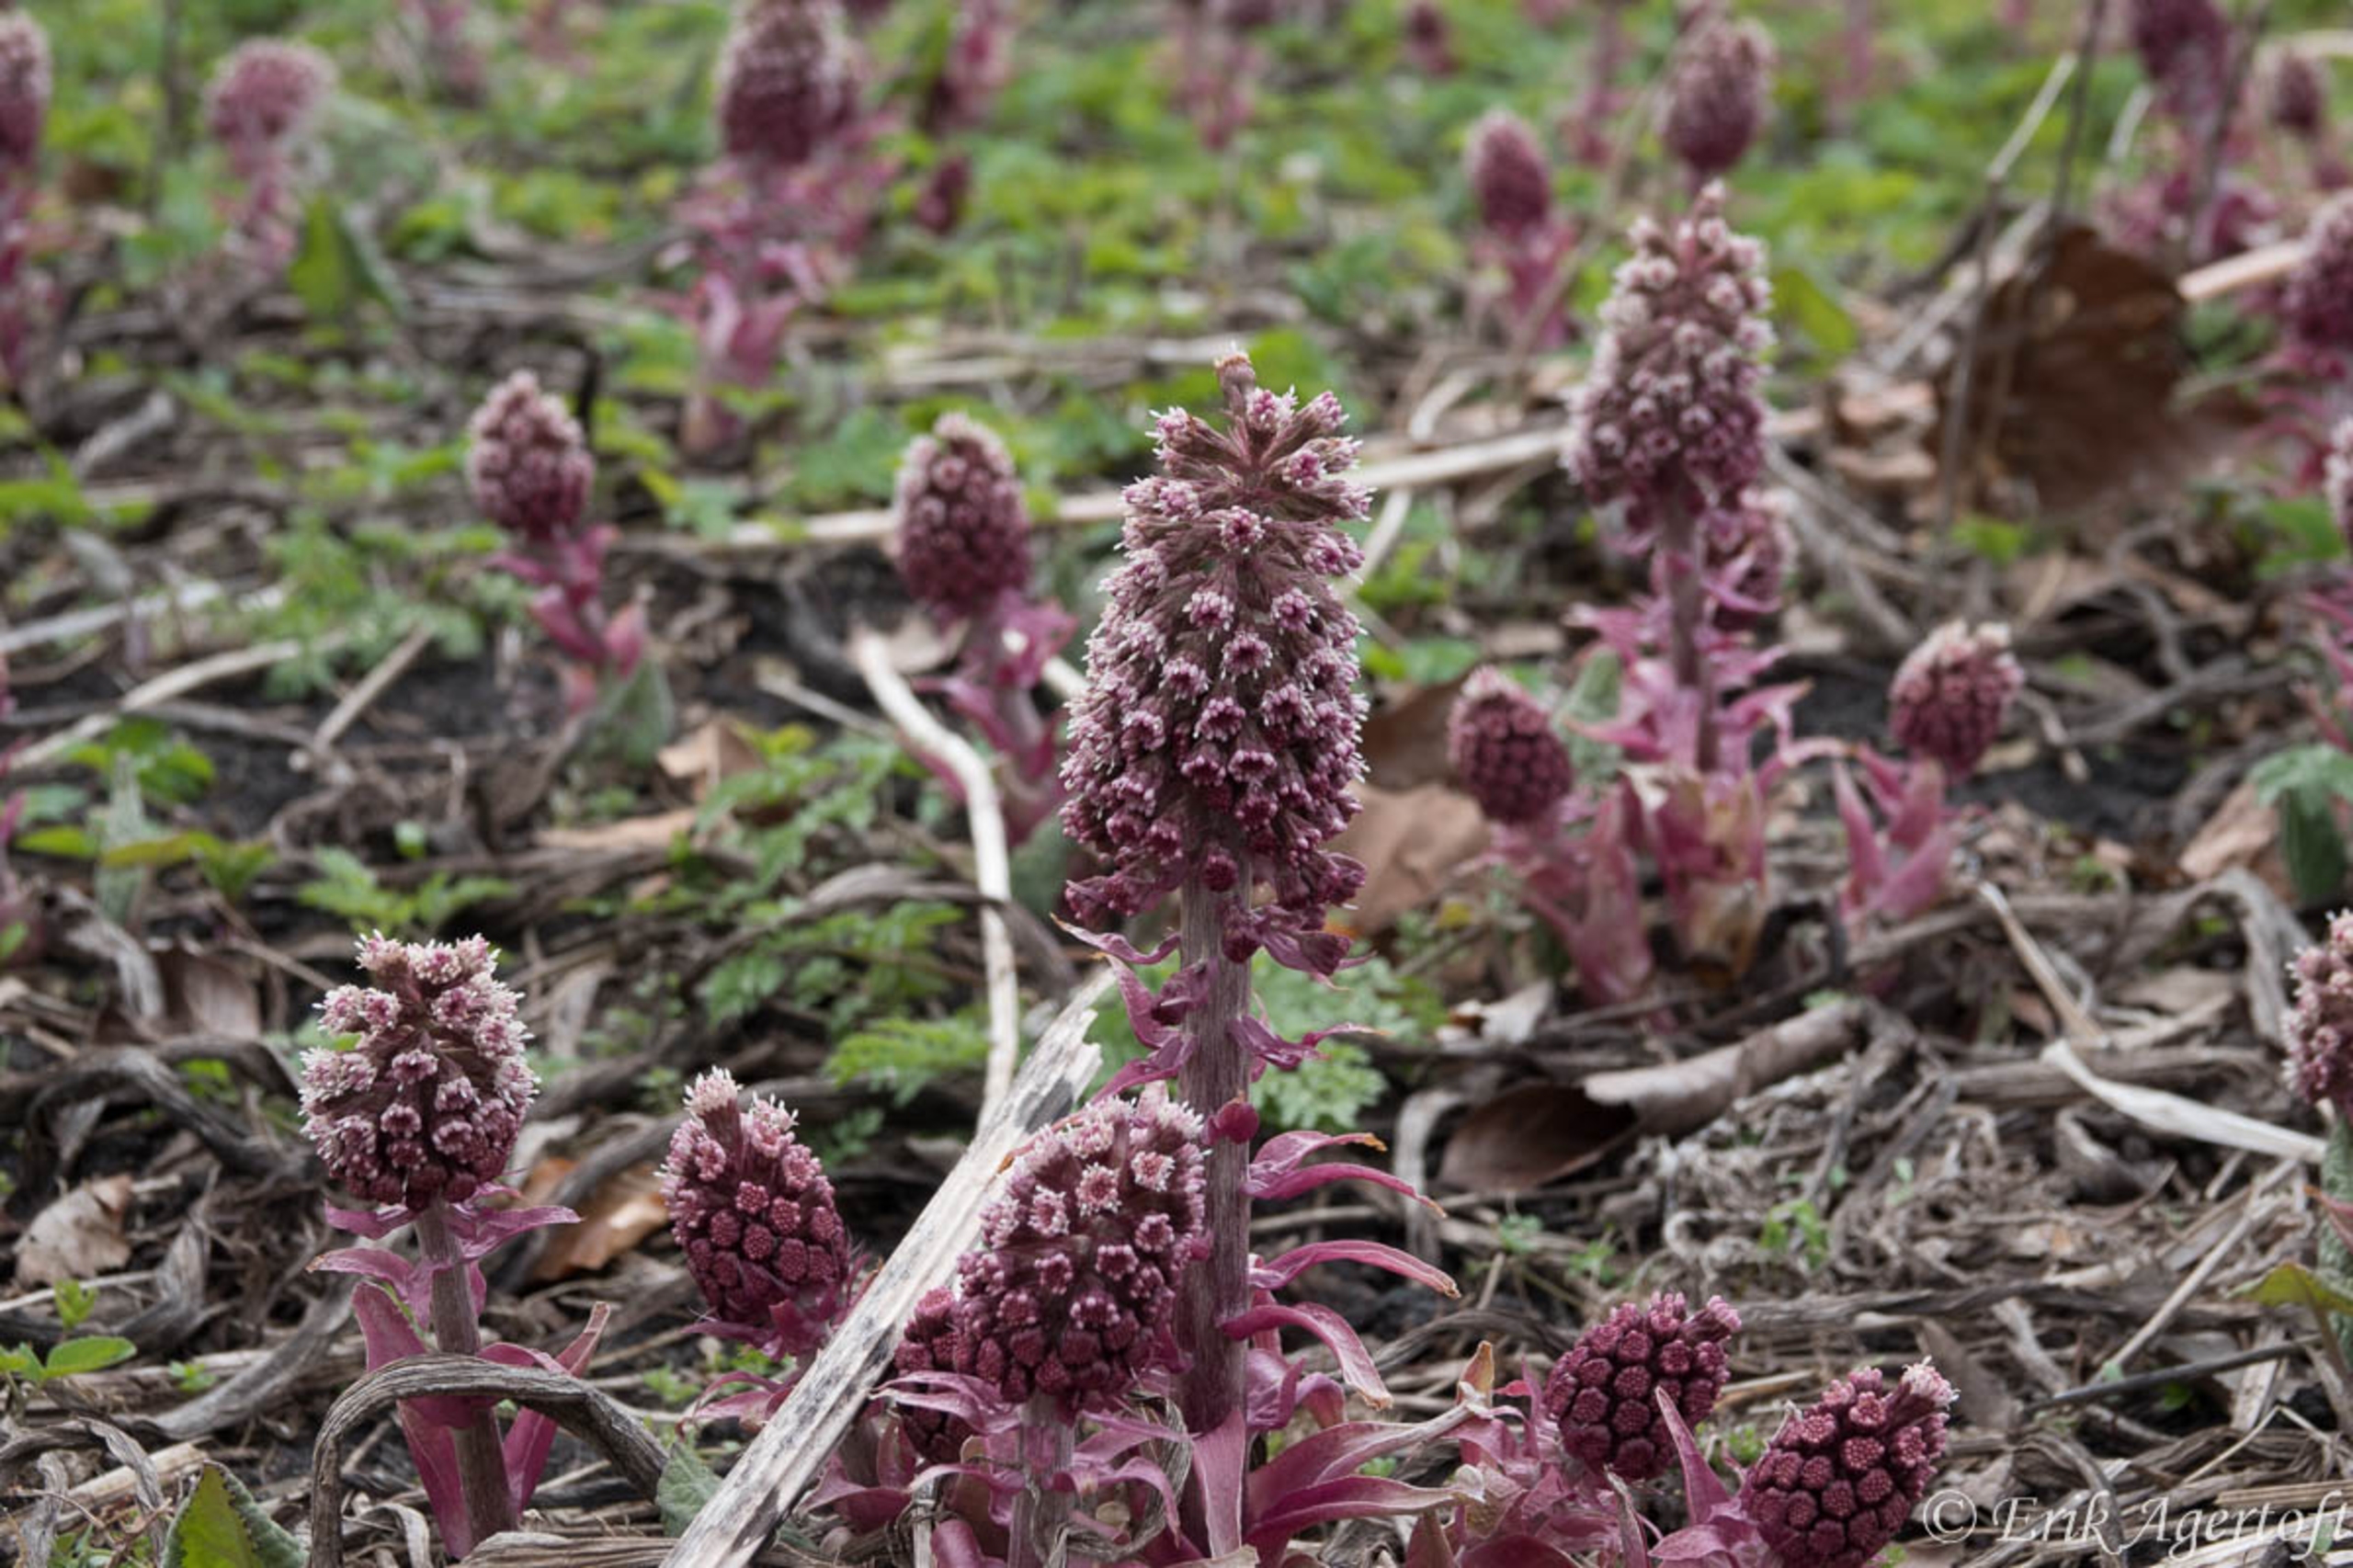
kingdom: Plantae
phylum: Tracheophyta
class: Magnoliopsida
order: Asterales
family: Asteraceae
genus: Petasites
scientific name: Petasites hybridus
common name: Rød hestehov
